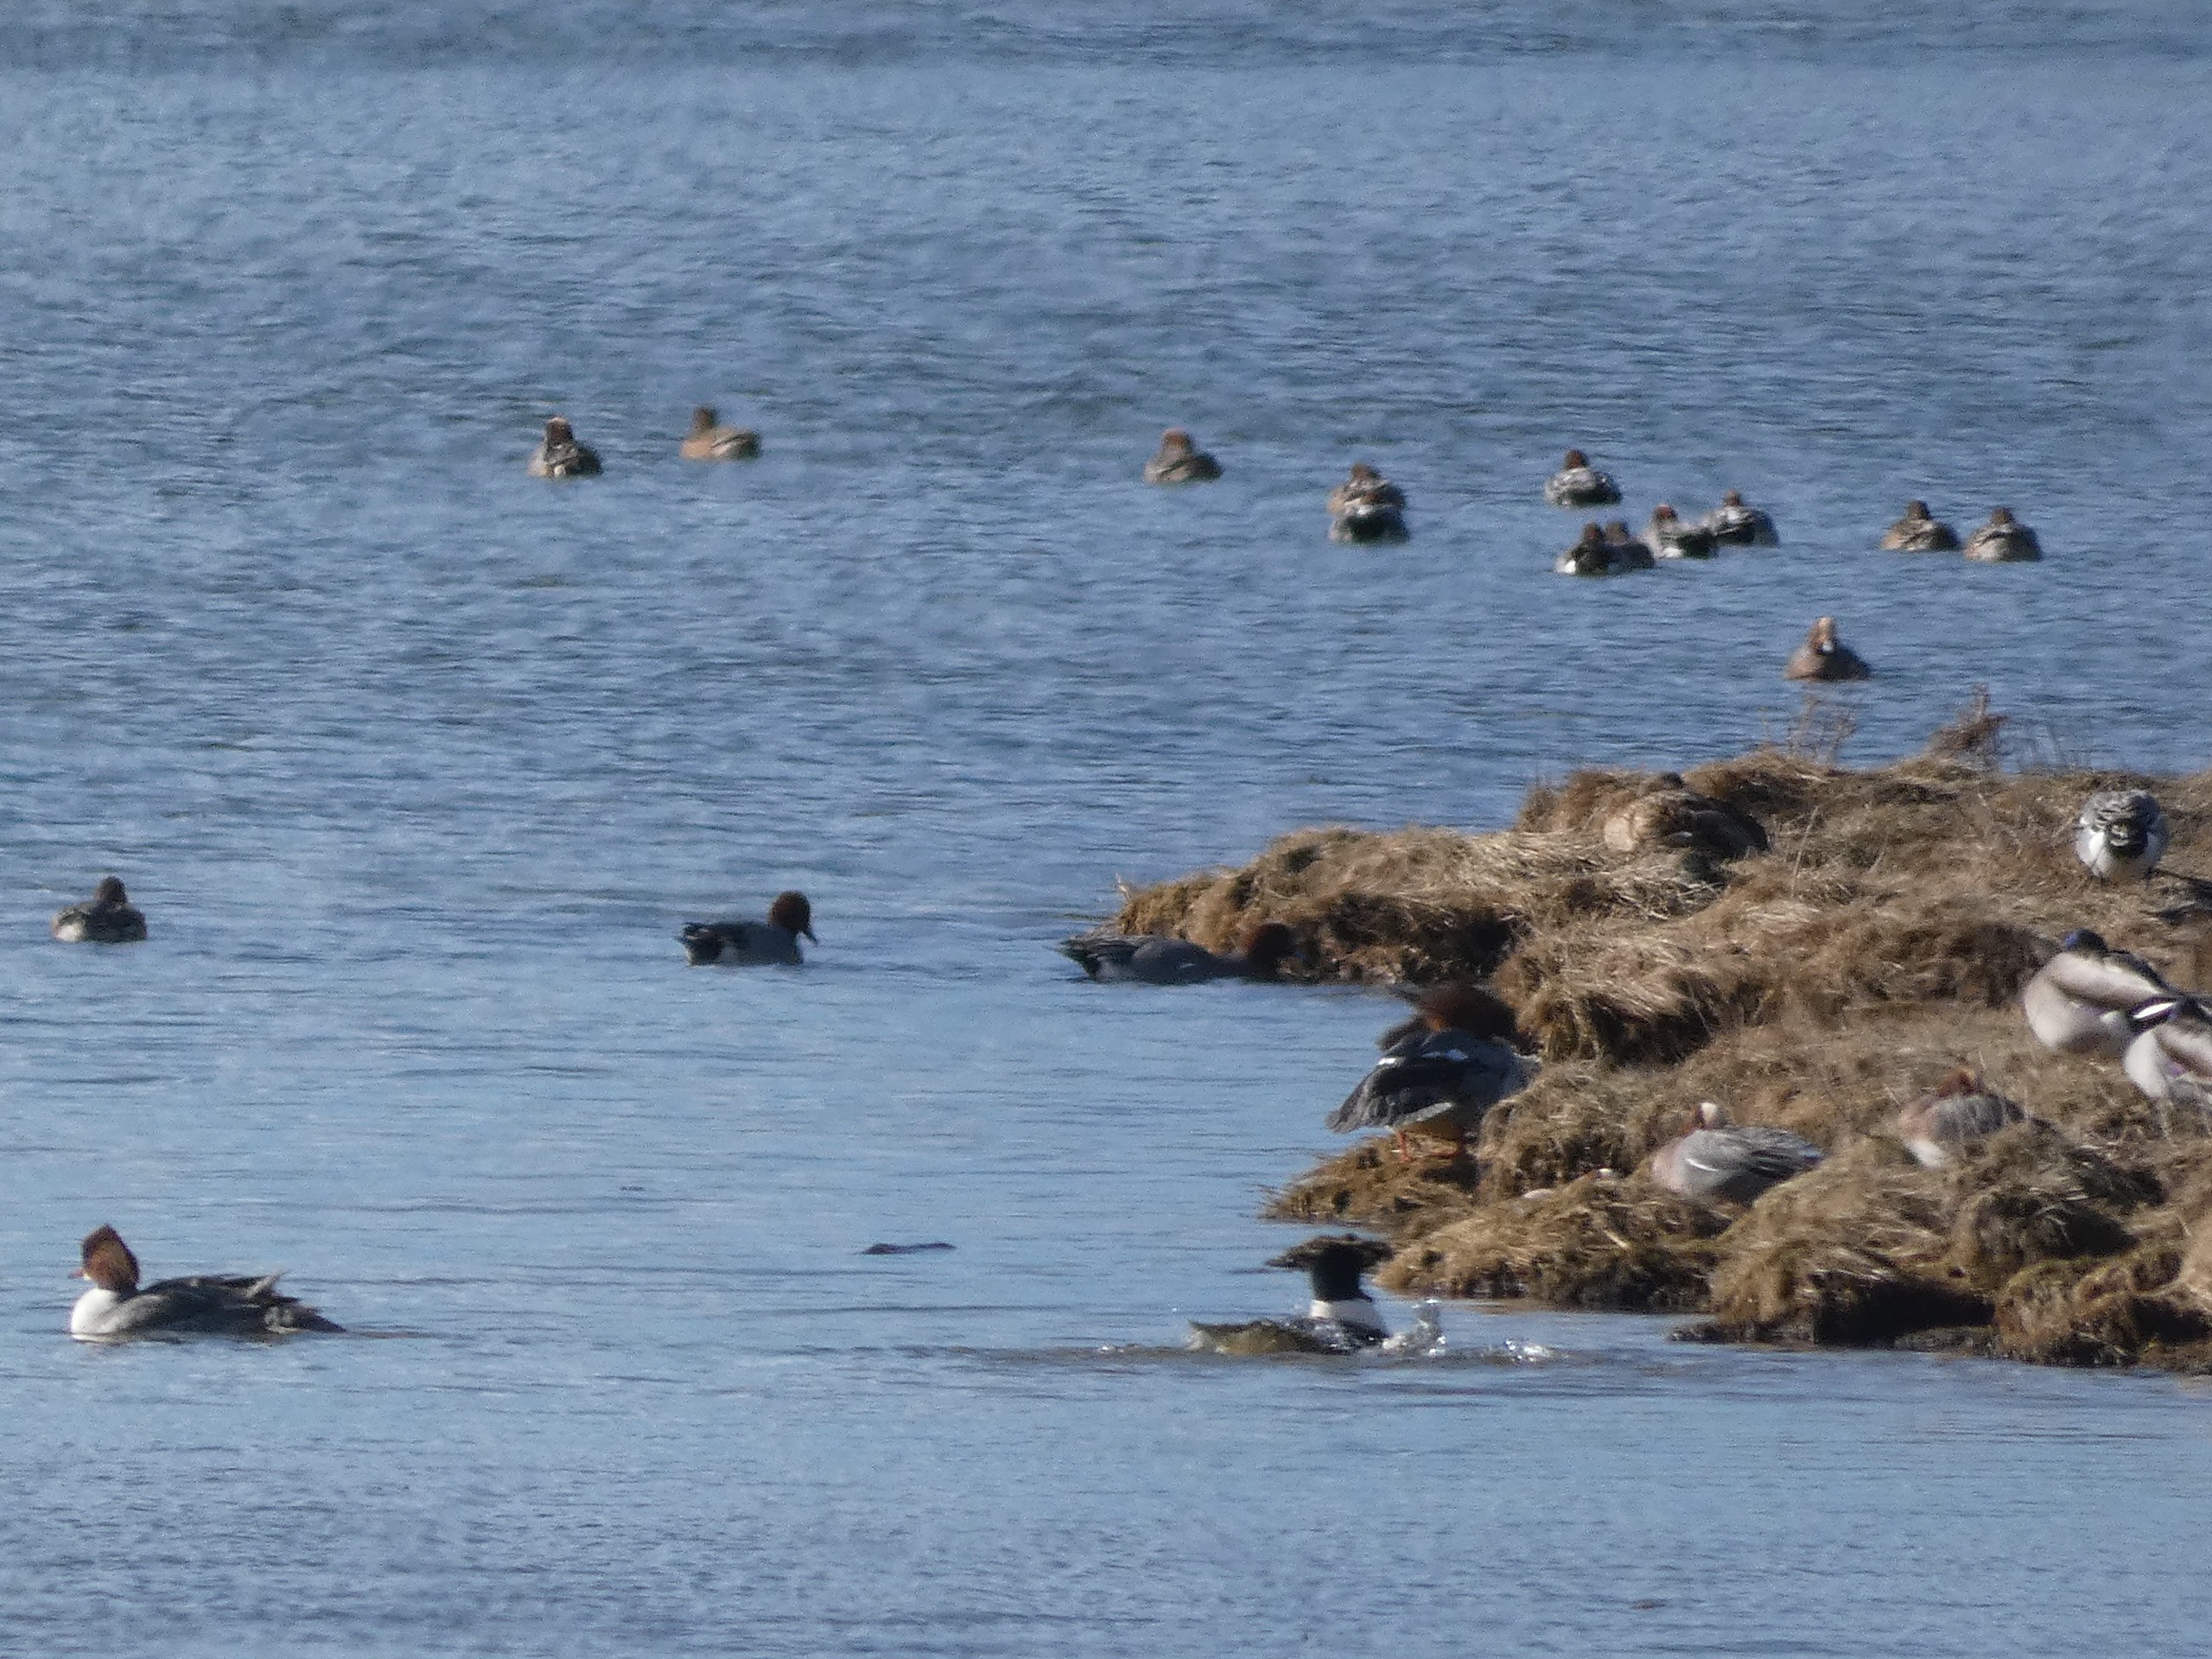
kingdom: Animalia
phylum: Chordata
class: Aves
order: Anseriformes
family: Anatidae
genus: Mergus
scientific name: Mergus merganser
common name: Stor skallesluger
